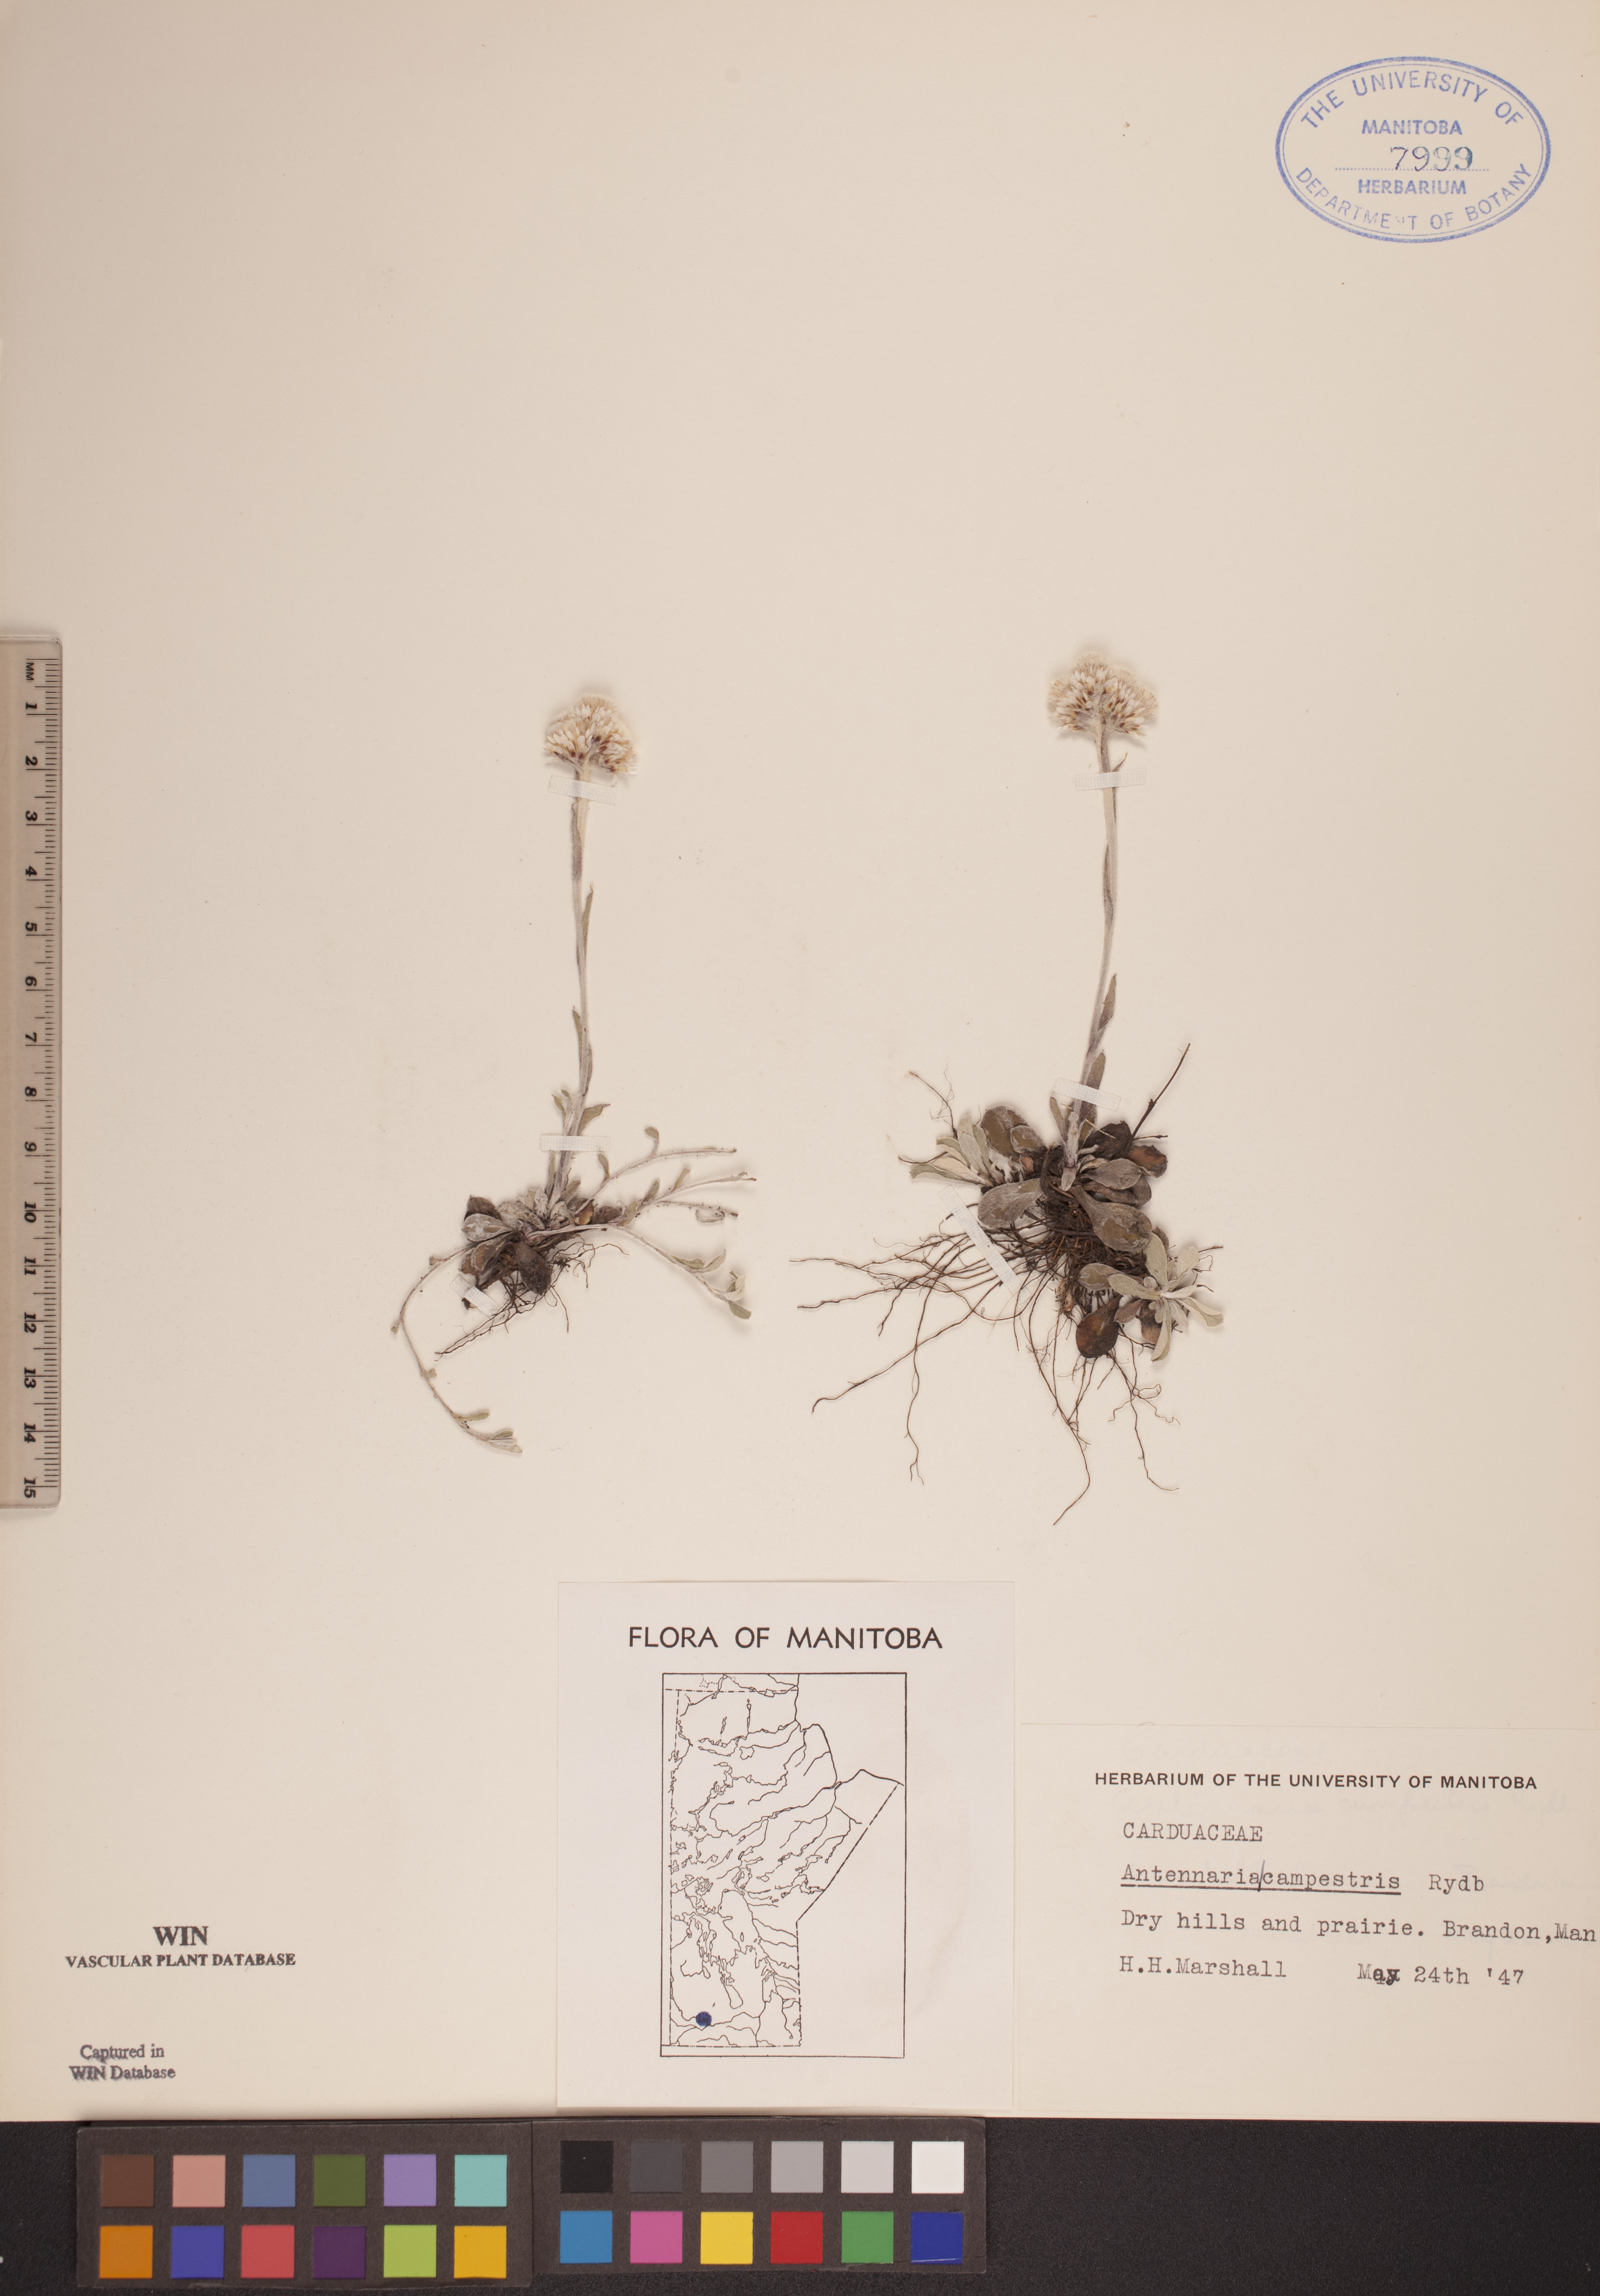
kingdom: Plantae
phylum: Tracheophyta
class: Magnoliopsida
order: Asterales
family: Asteraceae
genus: Antennaria
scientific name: Antennaria neglecta
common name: Field pussytoes
